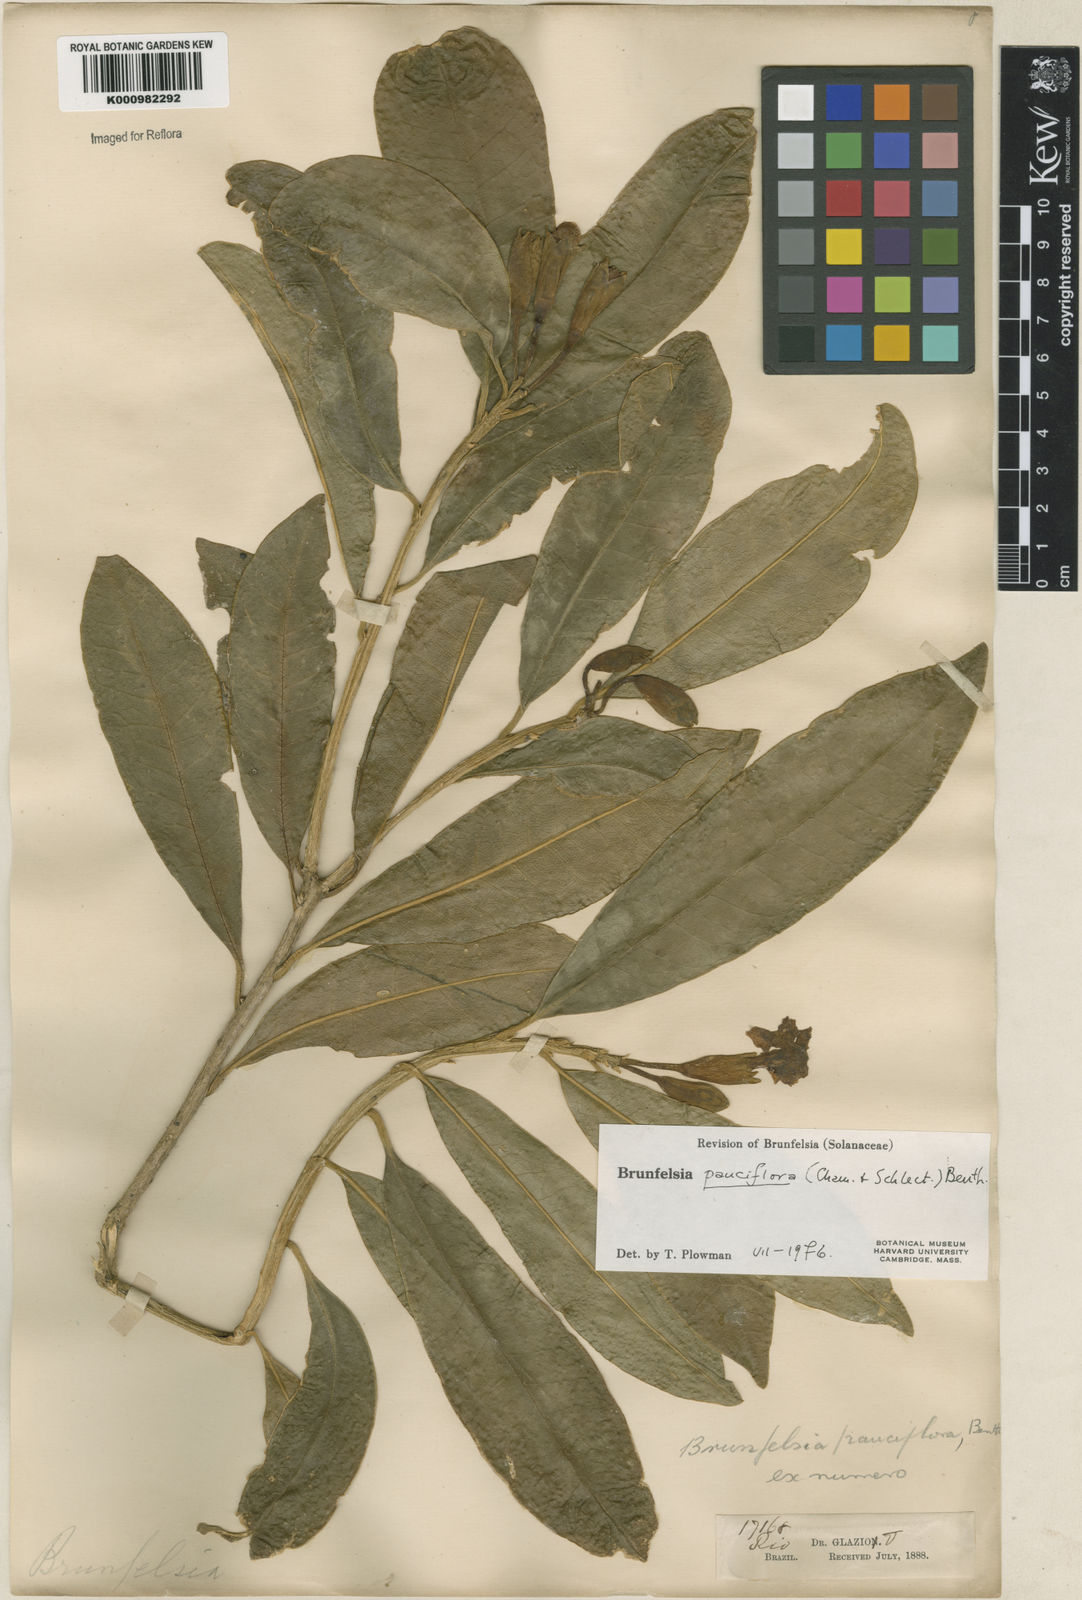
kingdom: Plantae
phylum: Tracheophyta
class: Magnoliopsida
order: Solanales
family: Solanaceae
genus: Brunfelsia
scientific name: Brunfelsia pauciflora
